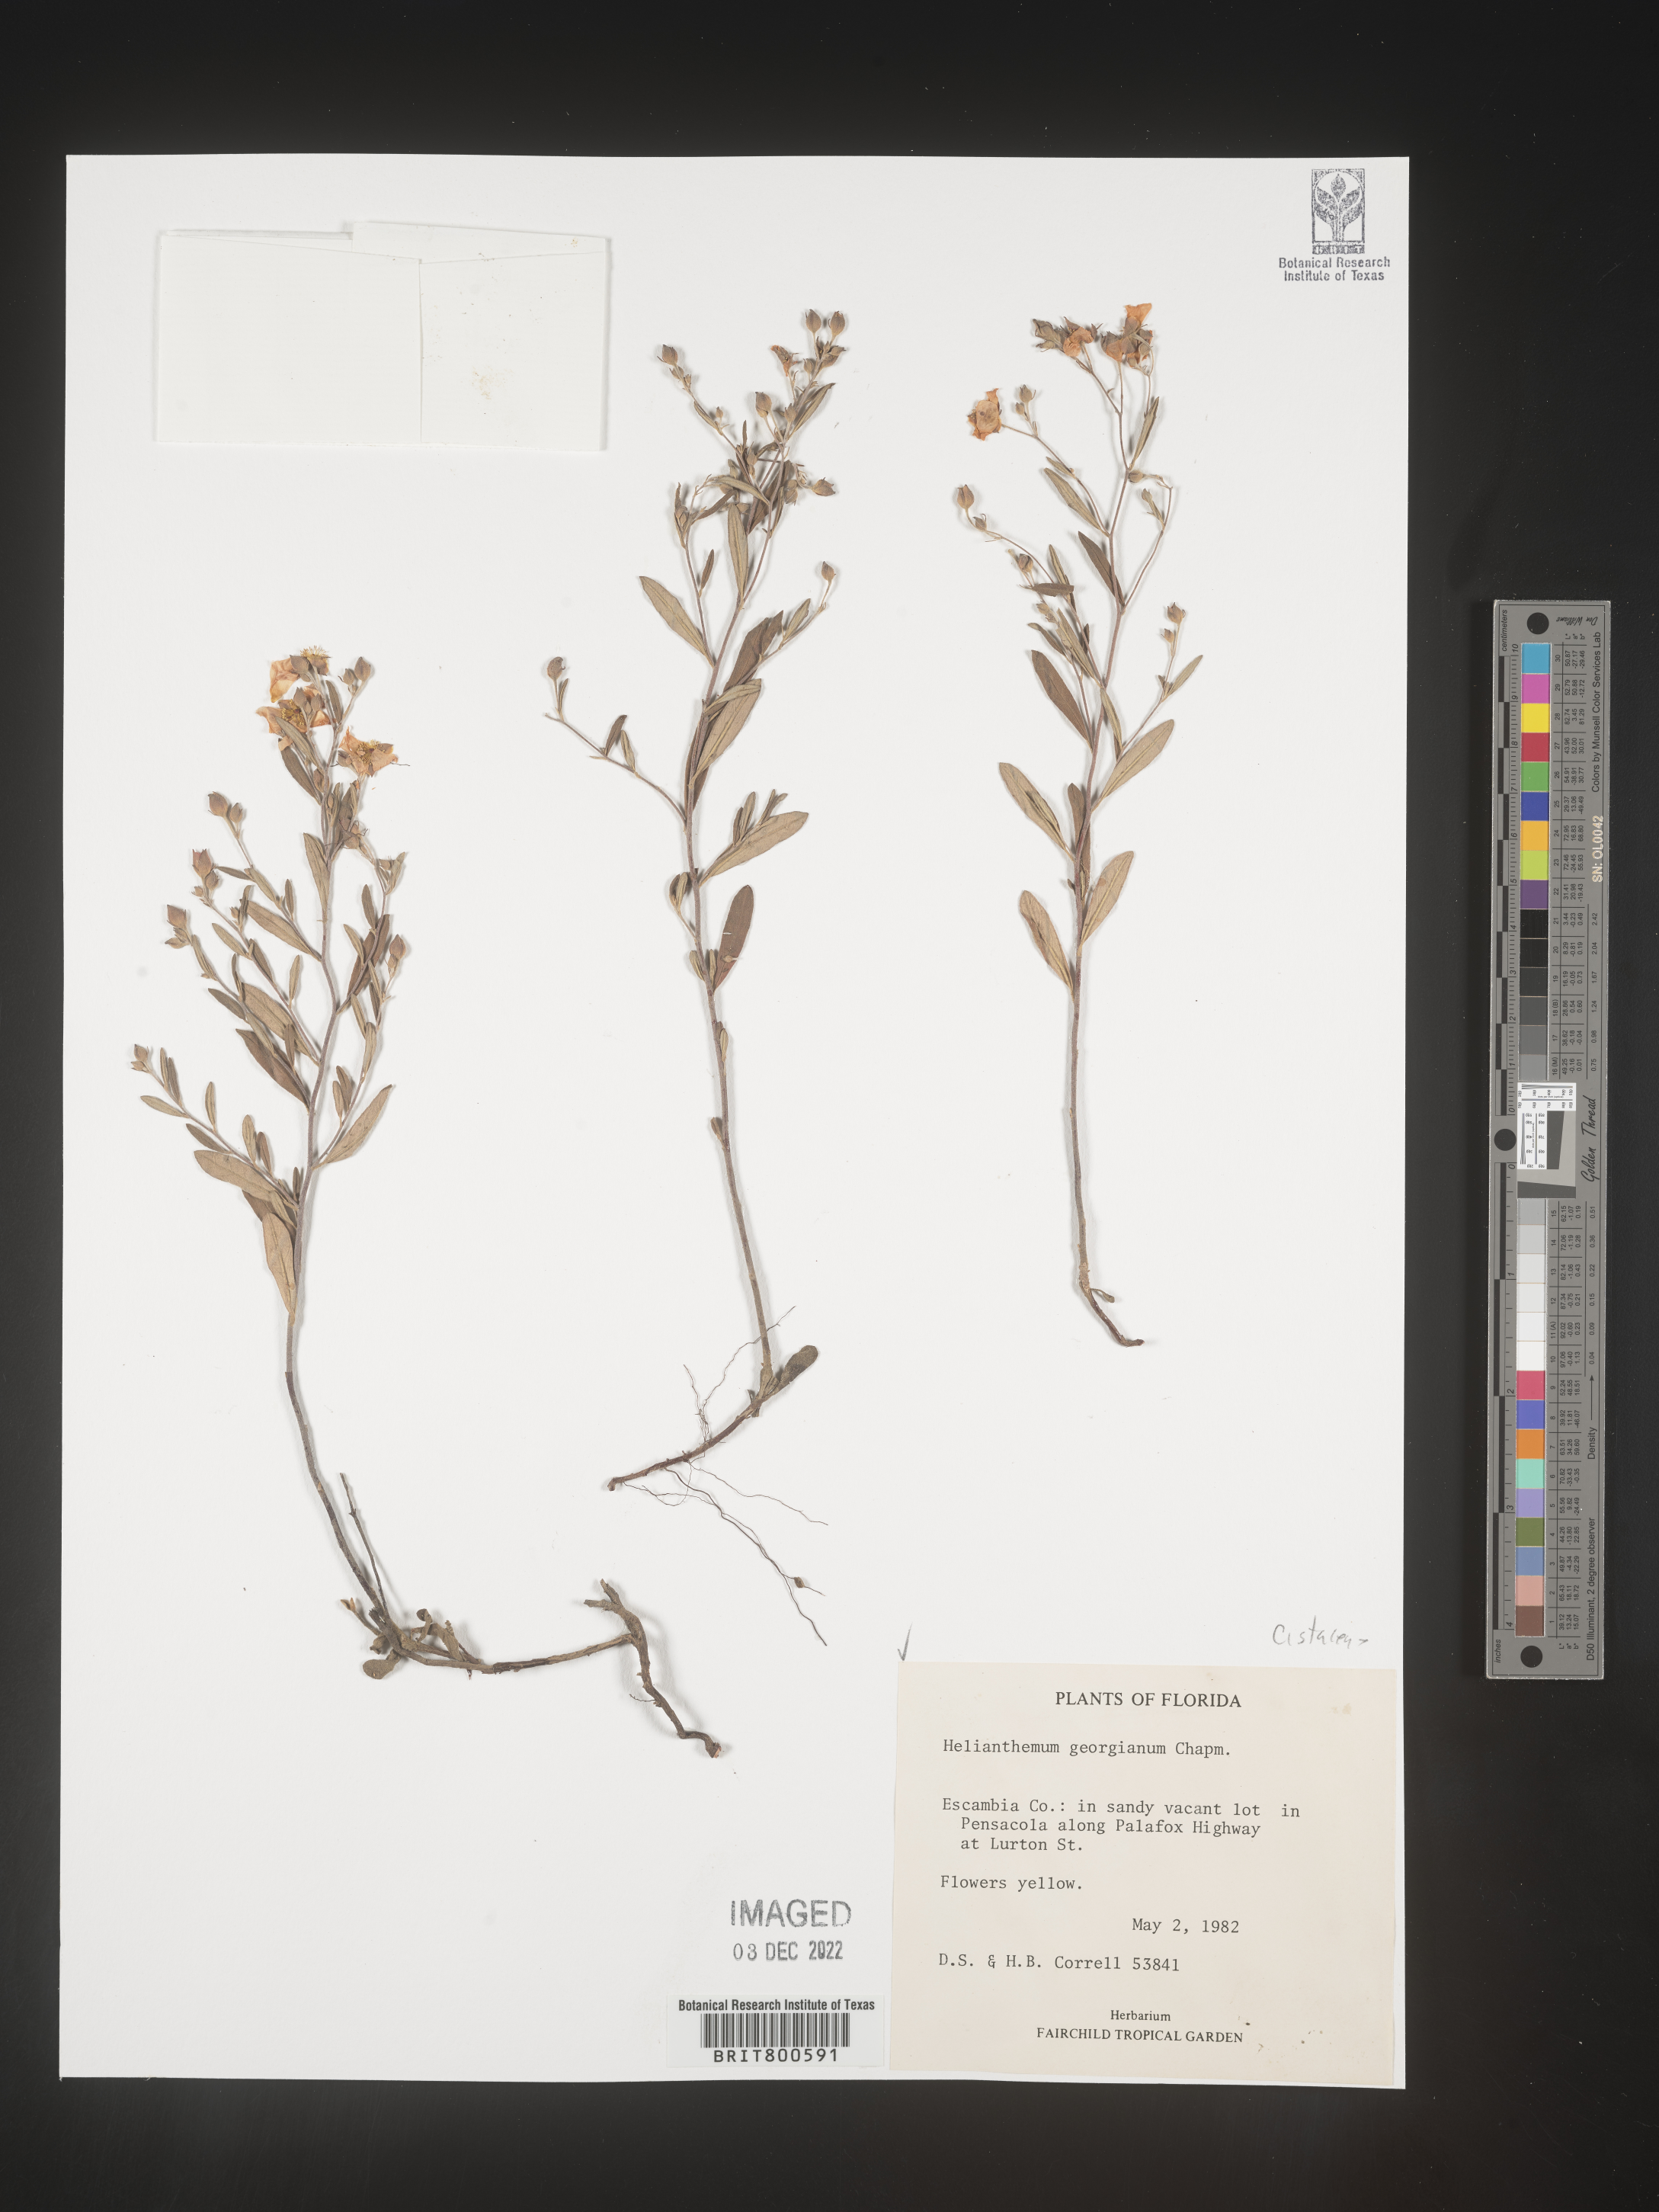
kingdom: Plantae
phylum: Tracheophyta
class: Magnoliopsida
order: Malvales
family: Cistaceae
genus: Crocanthemum
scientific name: Crocanthemum georgianum
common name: Georgia frostweed
